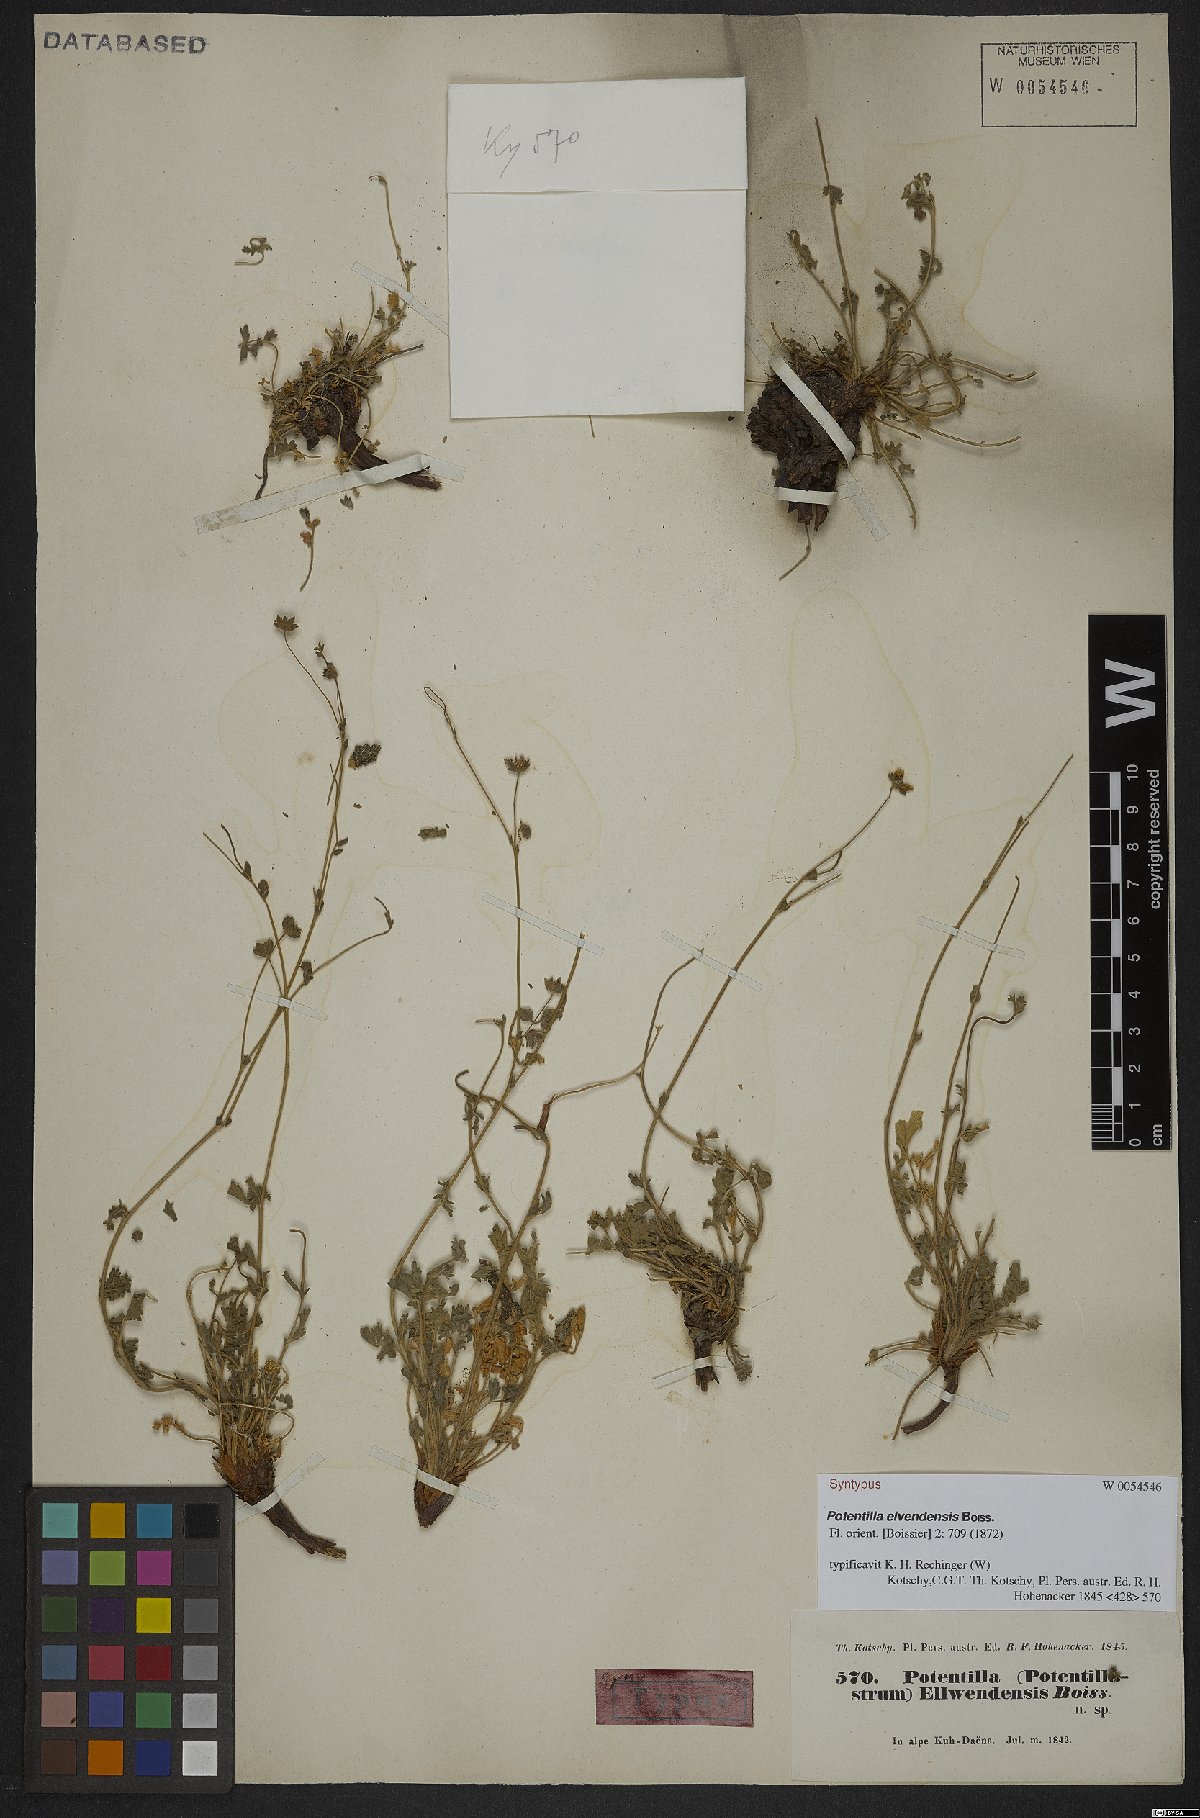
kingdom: Plantae
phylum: Tracheophyta
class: Magnoliopsida
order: Rosales
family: Rosaceae
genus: Potentilla
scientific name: Potentilla elvendensis
